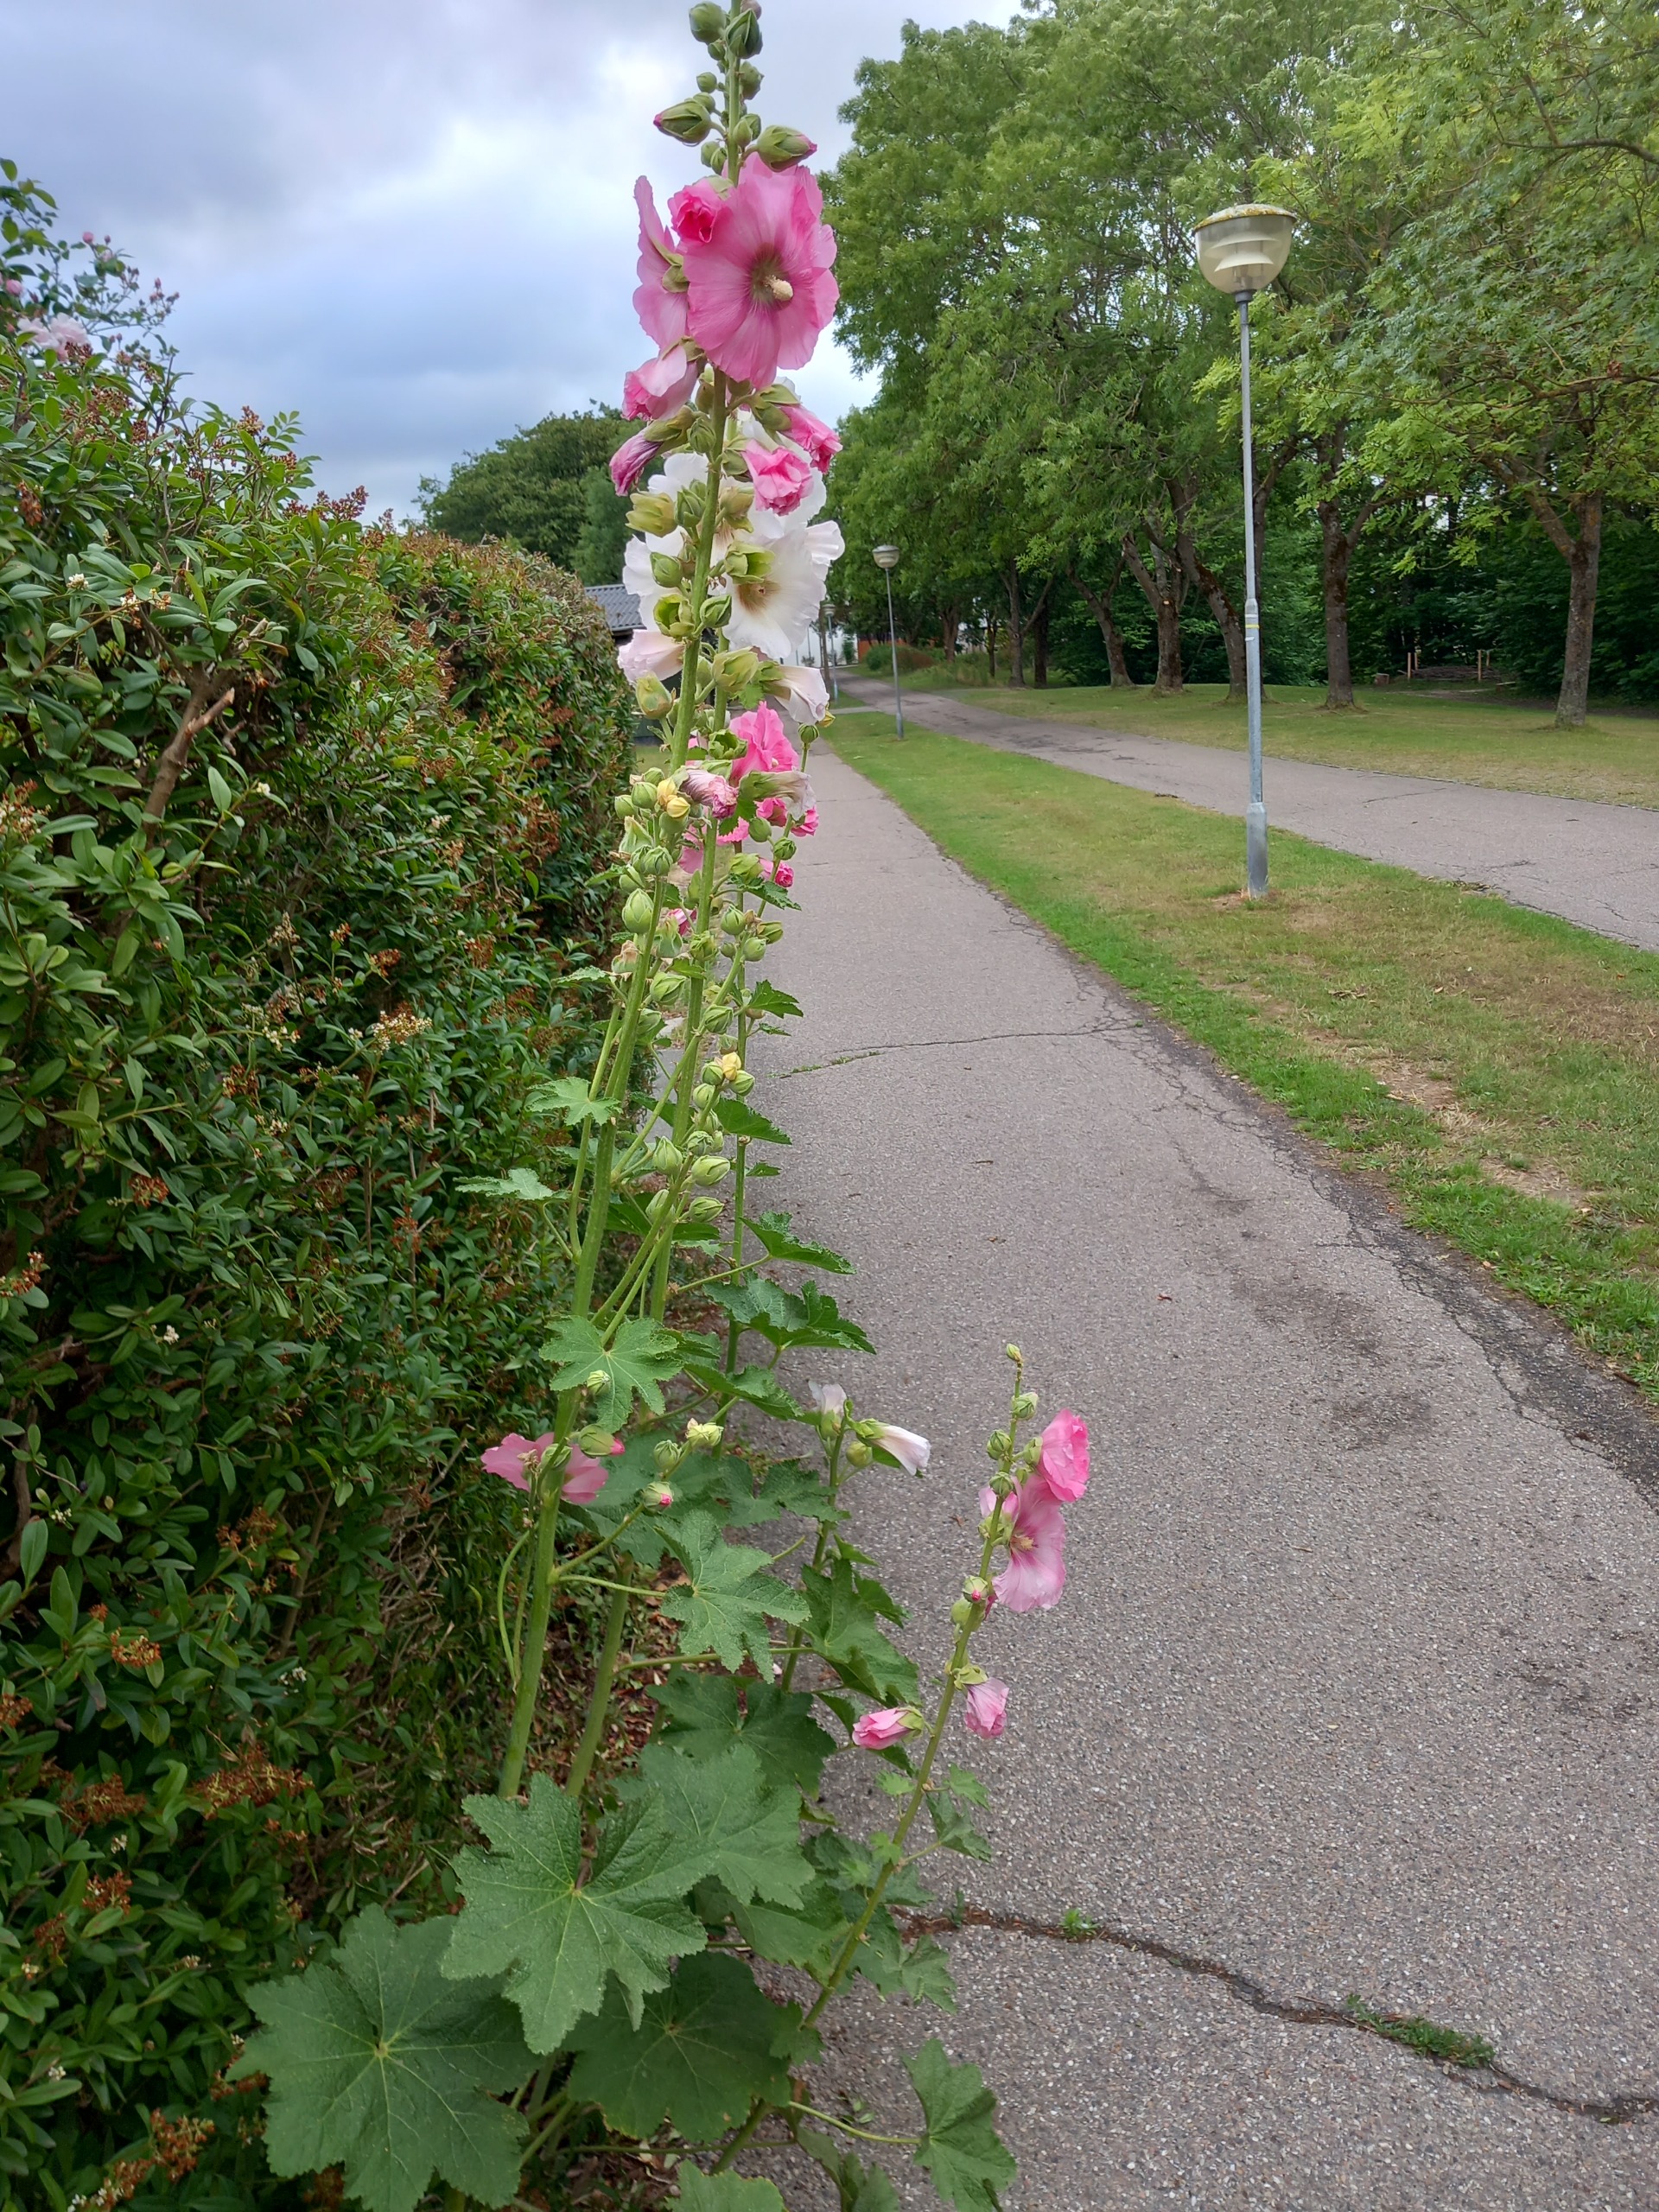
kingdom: Plantae
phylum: Tracheophyta
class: Magnoliopsida
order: Malvales
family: Malvaceae
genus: Alcea
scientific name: Alcea rosea
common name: Have-stokrose
